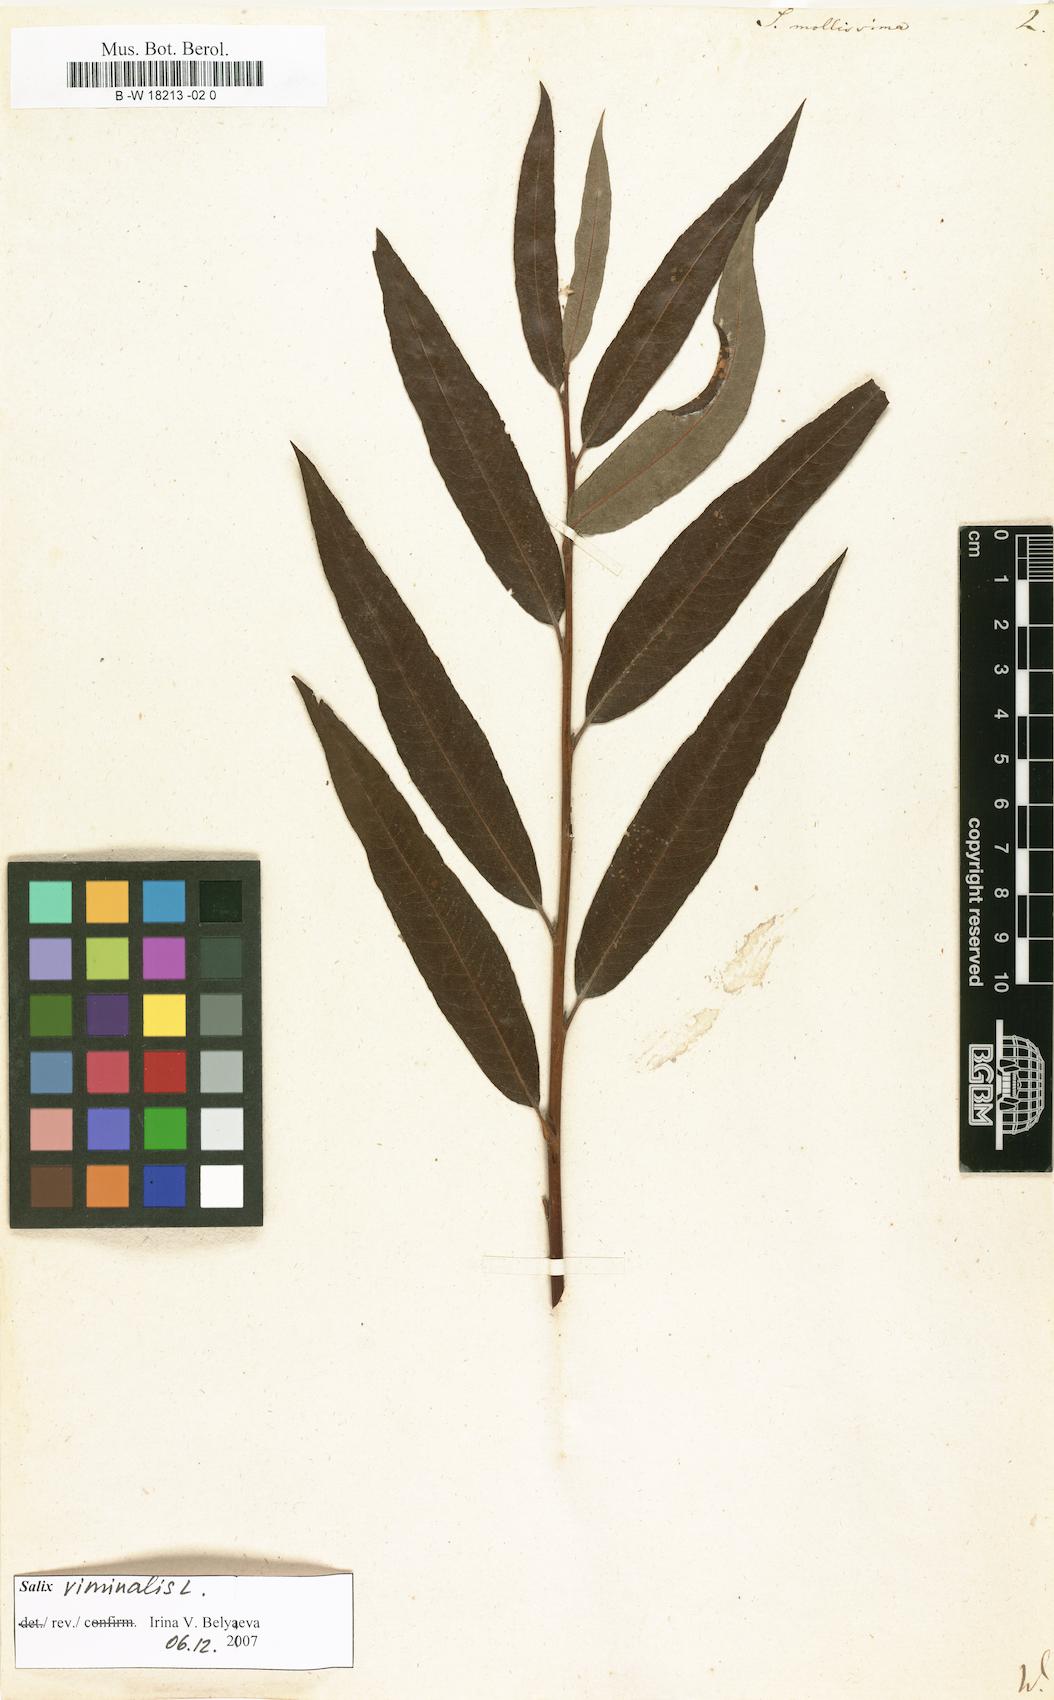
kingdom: Plantae
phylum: Tracheophyta
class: Magnoliopsida
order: Malpighiales
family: Salicaceae
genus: Salix
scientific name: Salix mollissima
